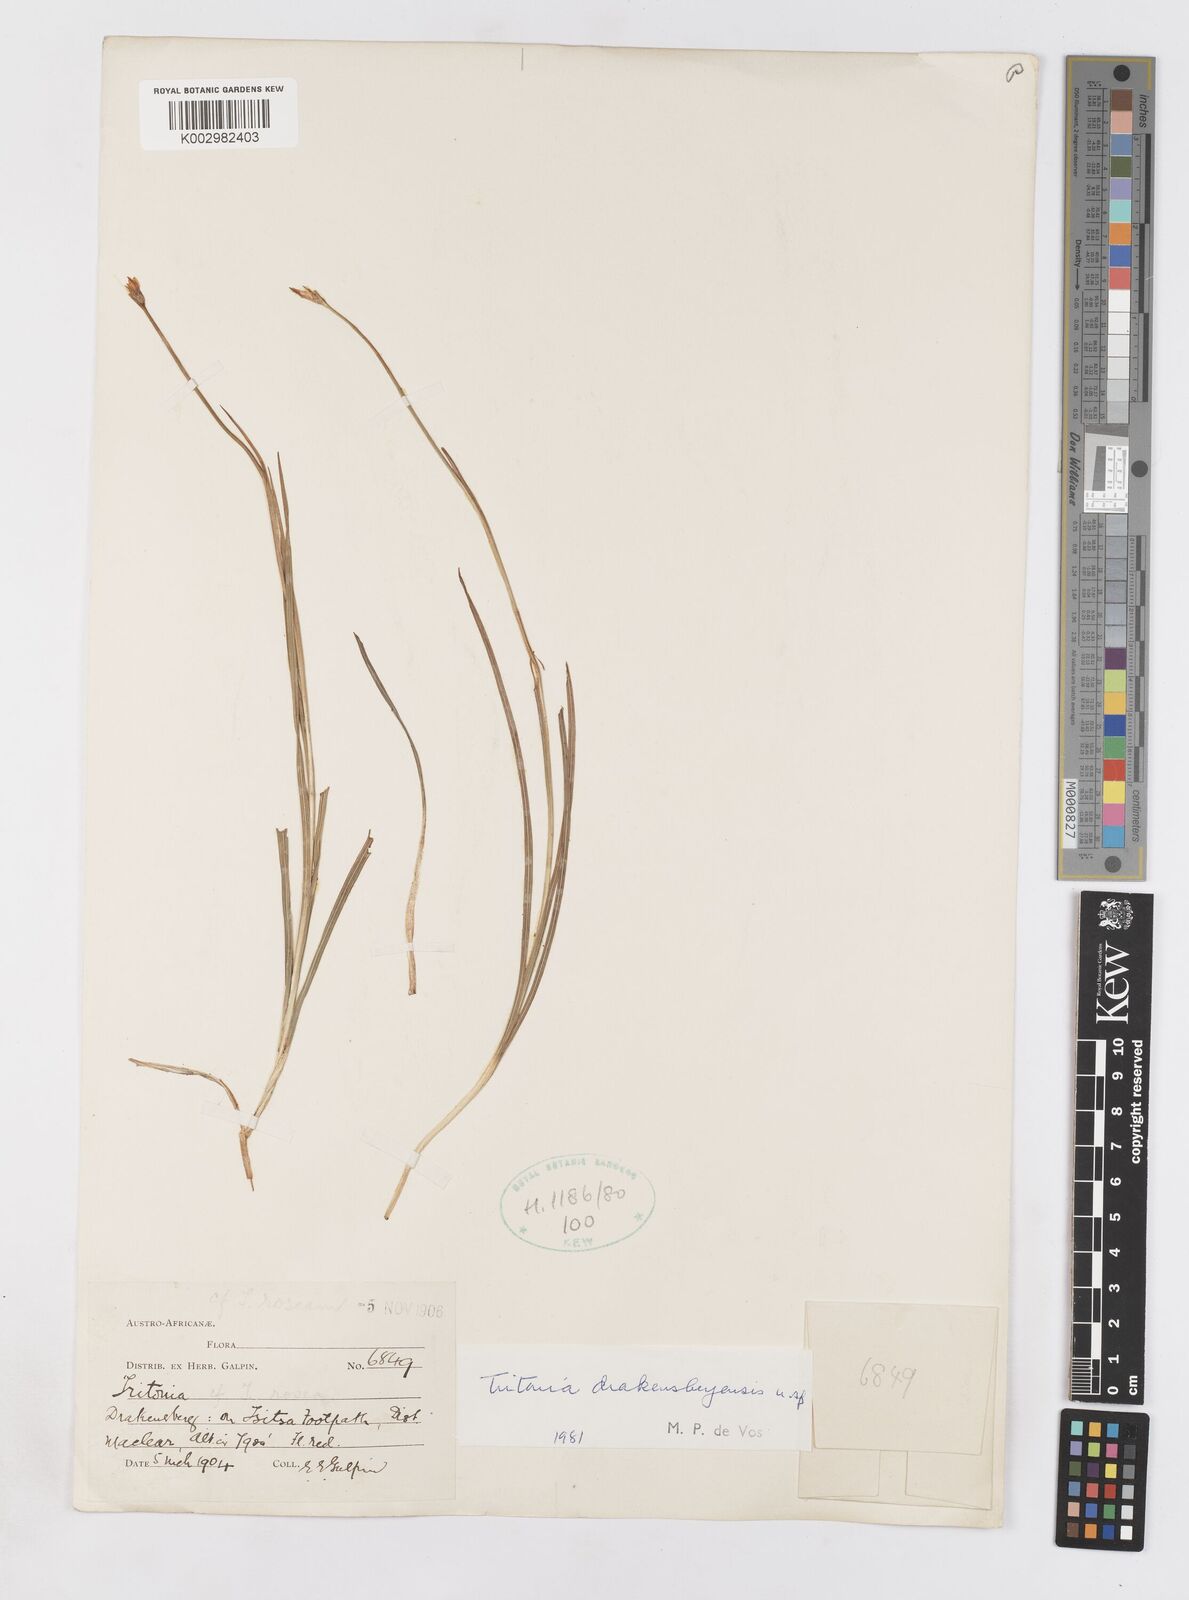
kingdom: Plantae
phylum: Tracheophyta
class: Liliopsida
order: Asparagales
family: Iridaceae
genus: Tritonia
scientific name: Tritonia drakensbergensis
